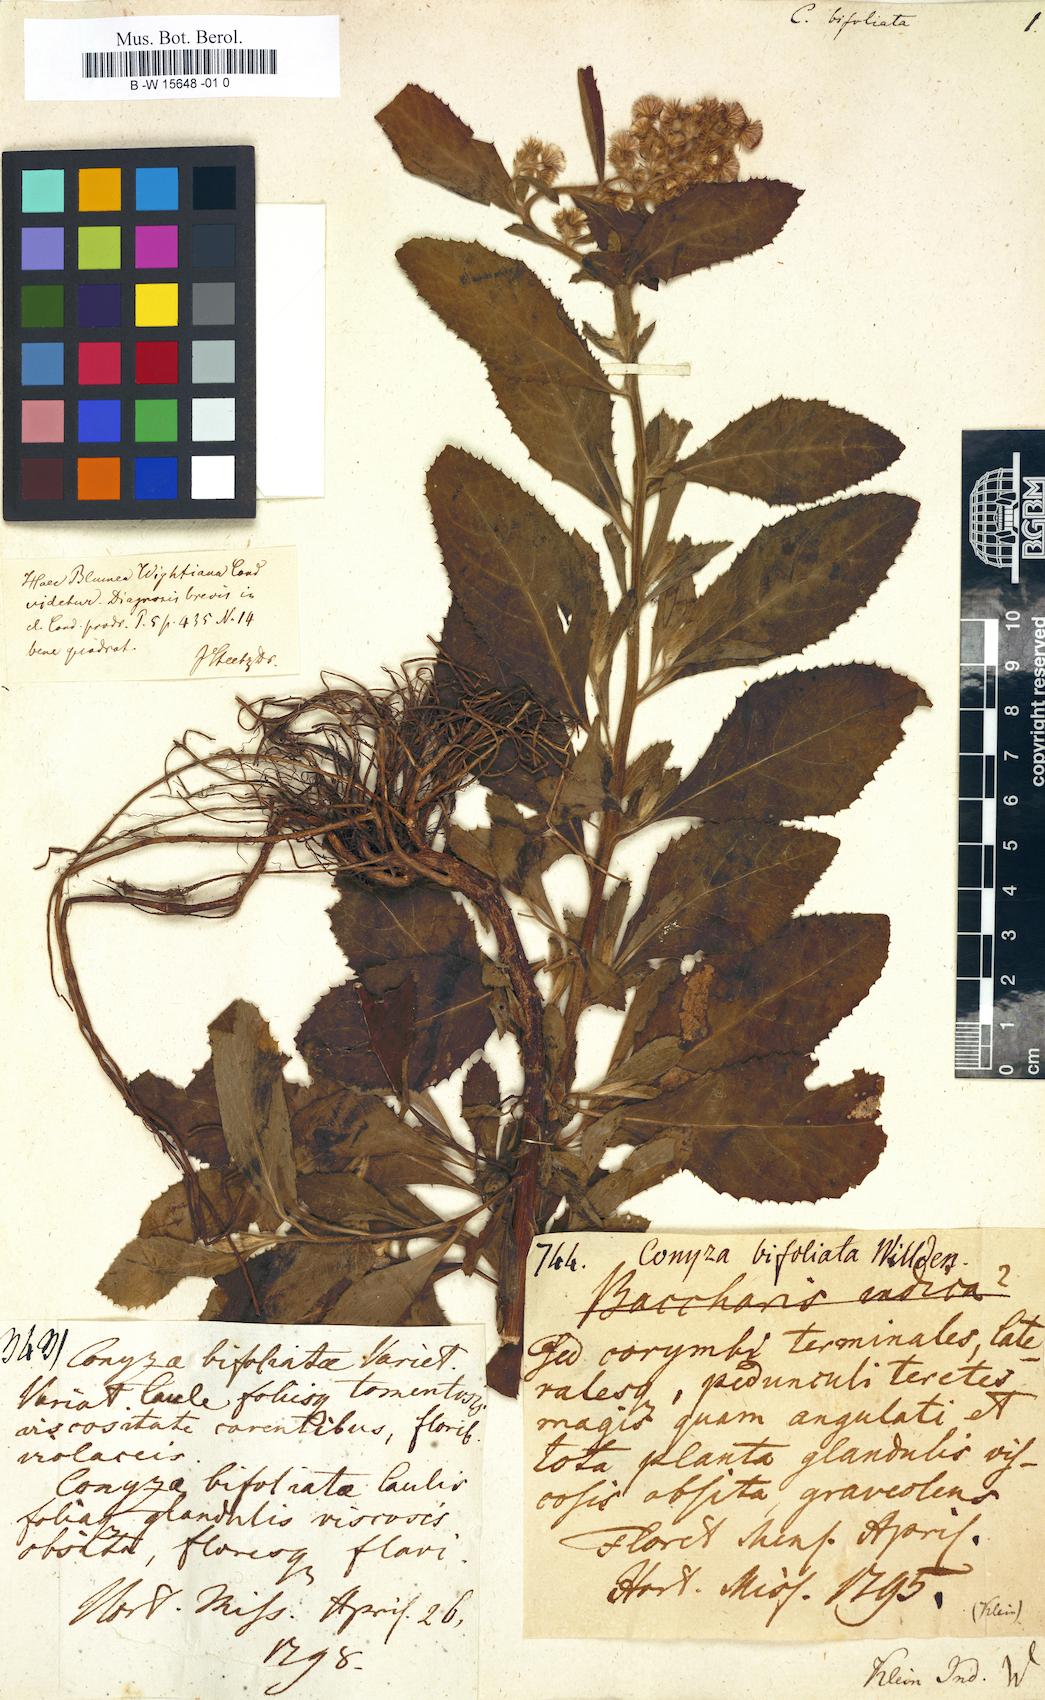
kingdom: Plantae
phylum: Tracheophyta
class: Magnoliopsida
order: Asterales
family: Asteraceae
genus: Blumea
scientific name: Blumea bifoliata
